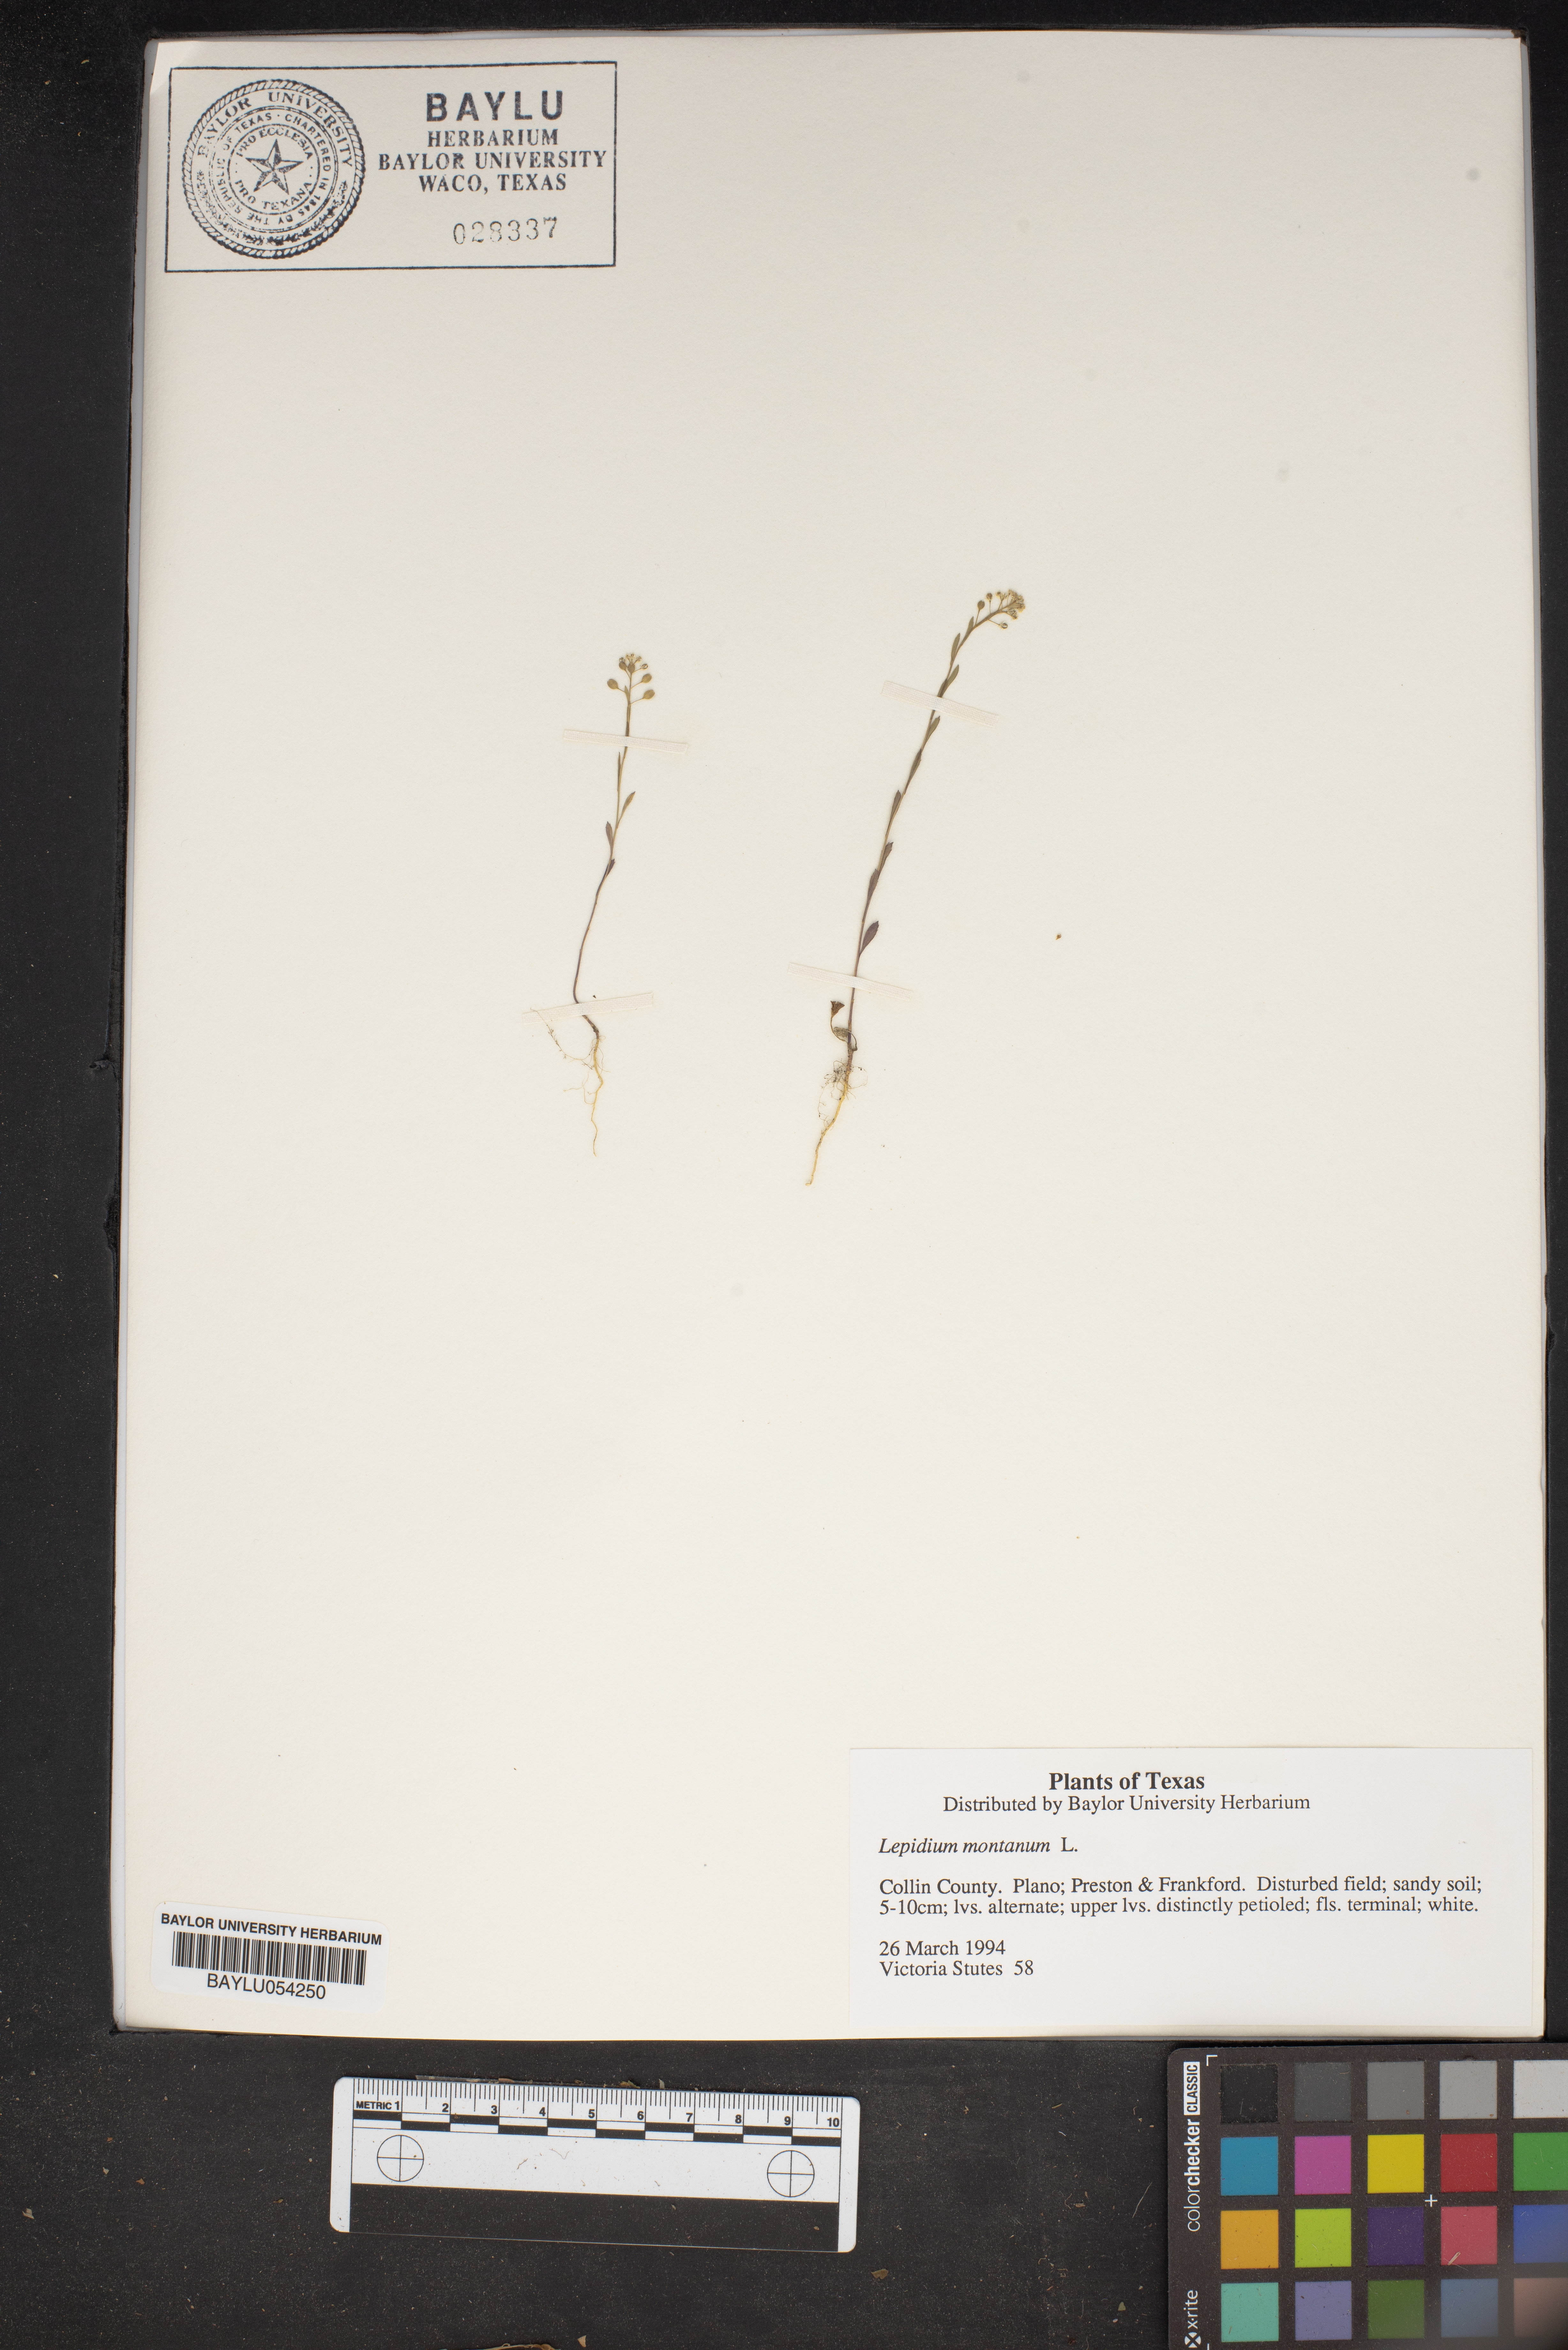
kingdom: Plantae
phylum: Tracheophyta
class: Magnoliopsida
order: Brassicales
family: Brassicaceae
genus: Lepidium
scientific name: Lepidium montanum
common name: Mountain pepperplant
